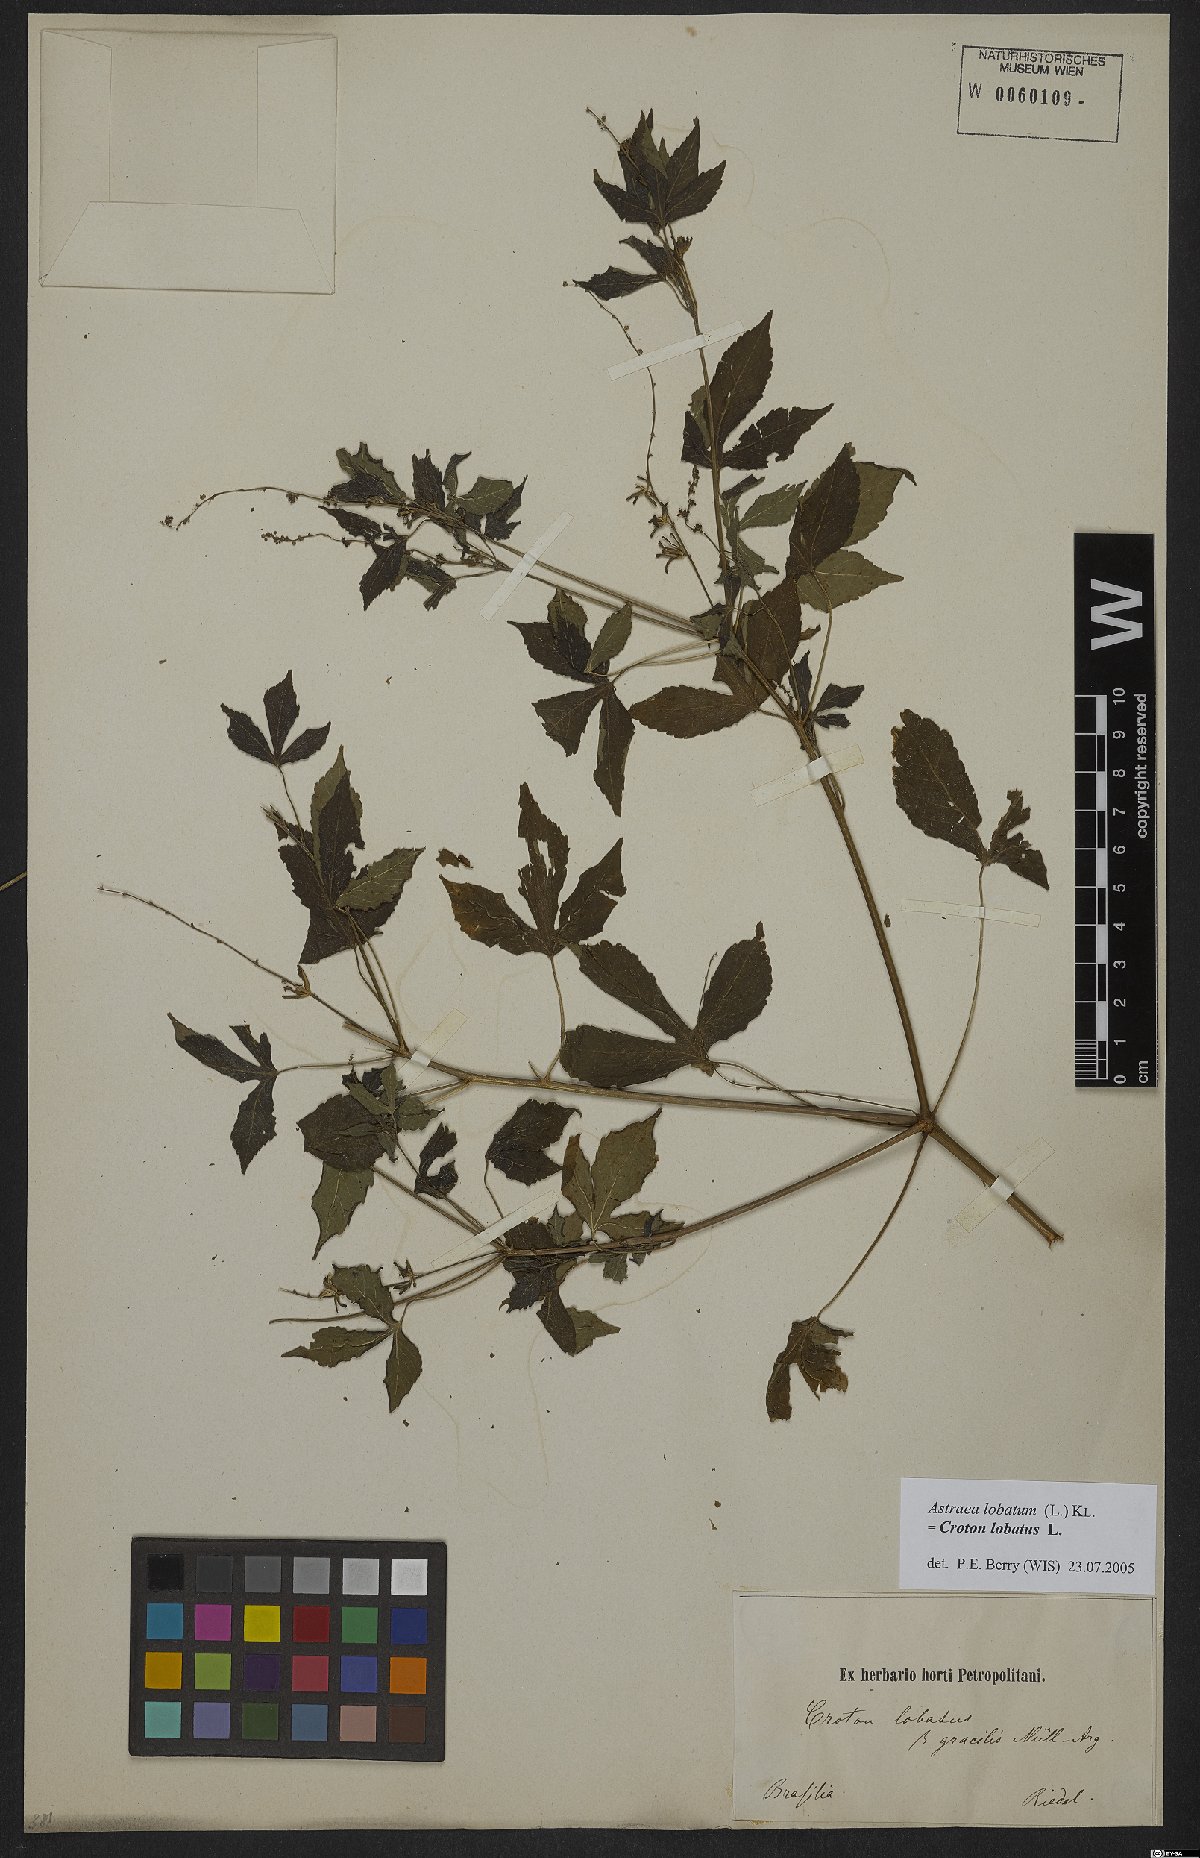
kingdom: Plantae
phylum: Tracheophyta
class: Magnoliopsida
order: Malpighiales
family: Euphorbiaceae
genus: Croton
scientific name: Croton lobatus
